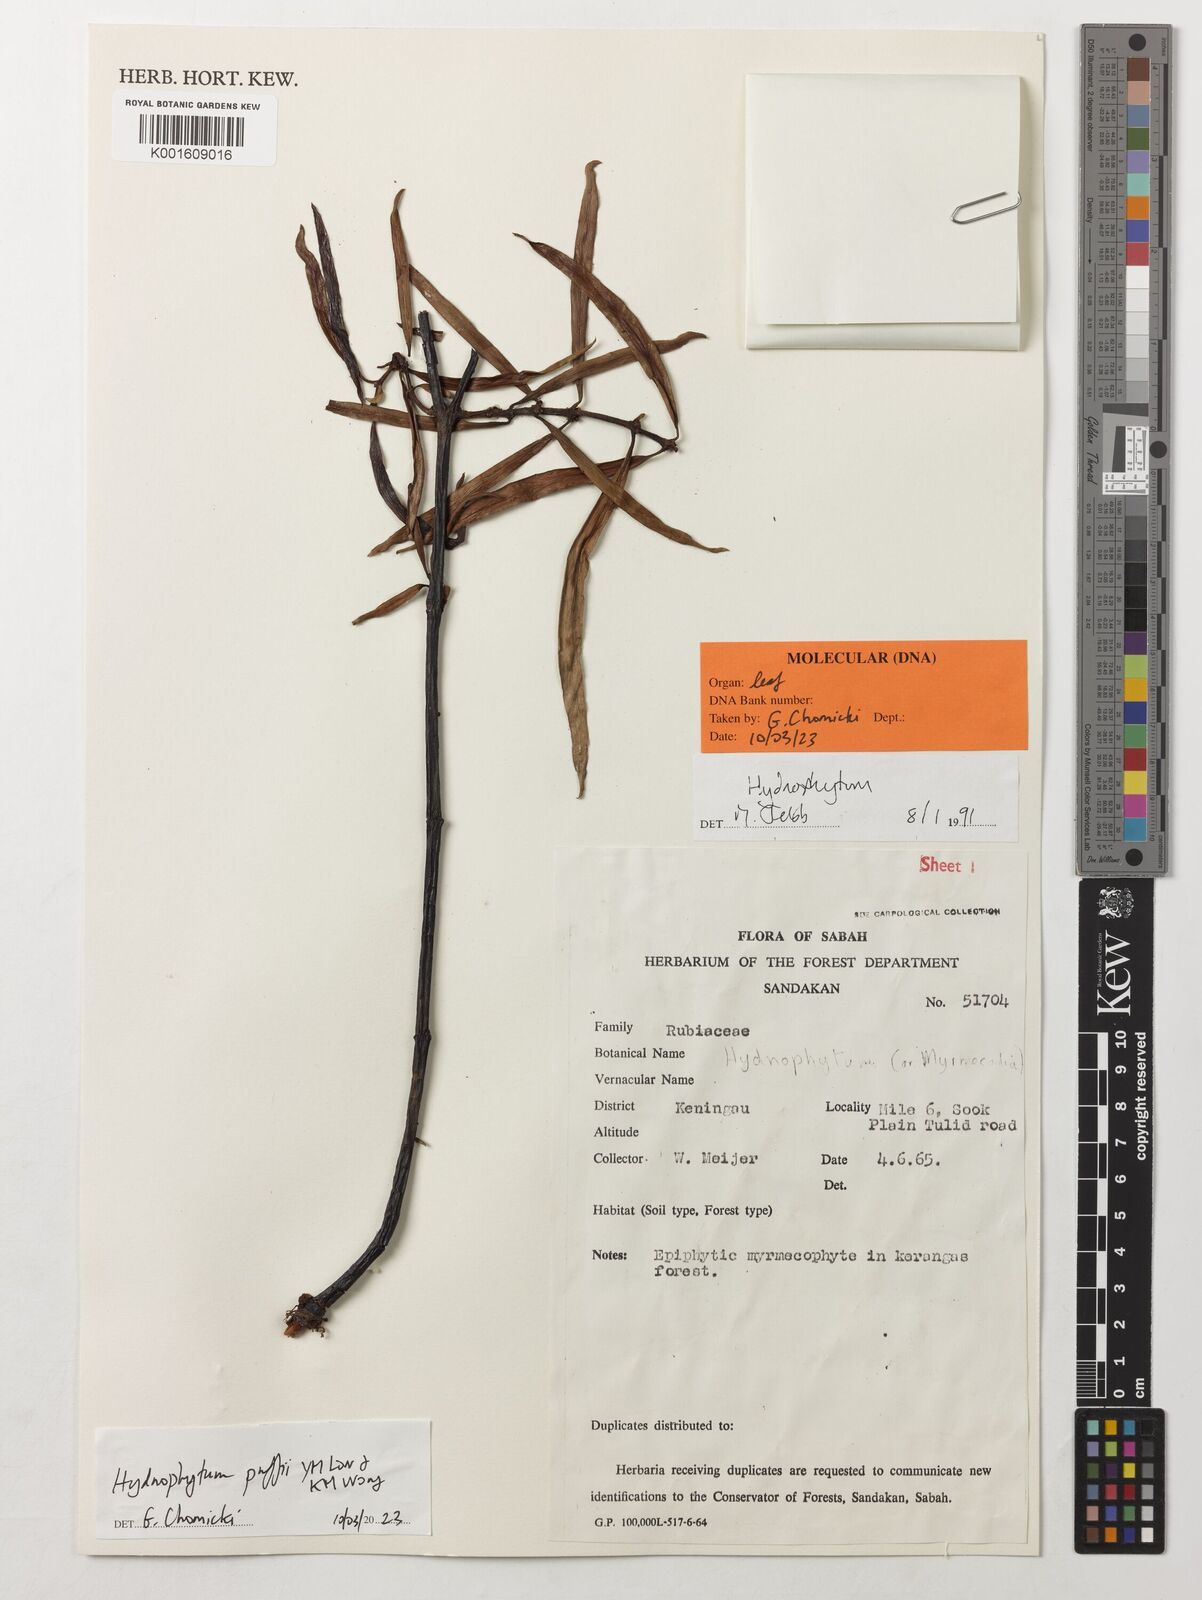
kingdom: Plantae
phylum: Tracheophyta
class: Magnoliopsida
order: Gentianales
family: Rubiaceae
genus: Hydnophytum
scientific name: Hydnophytum puffii
